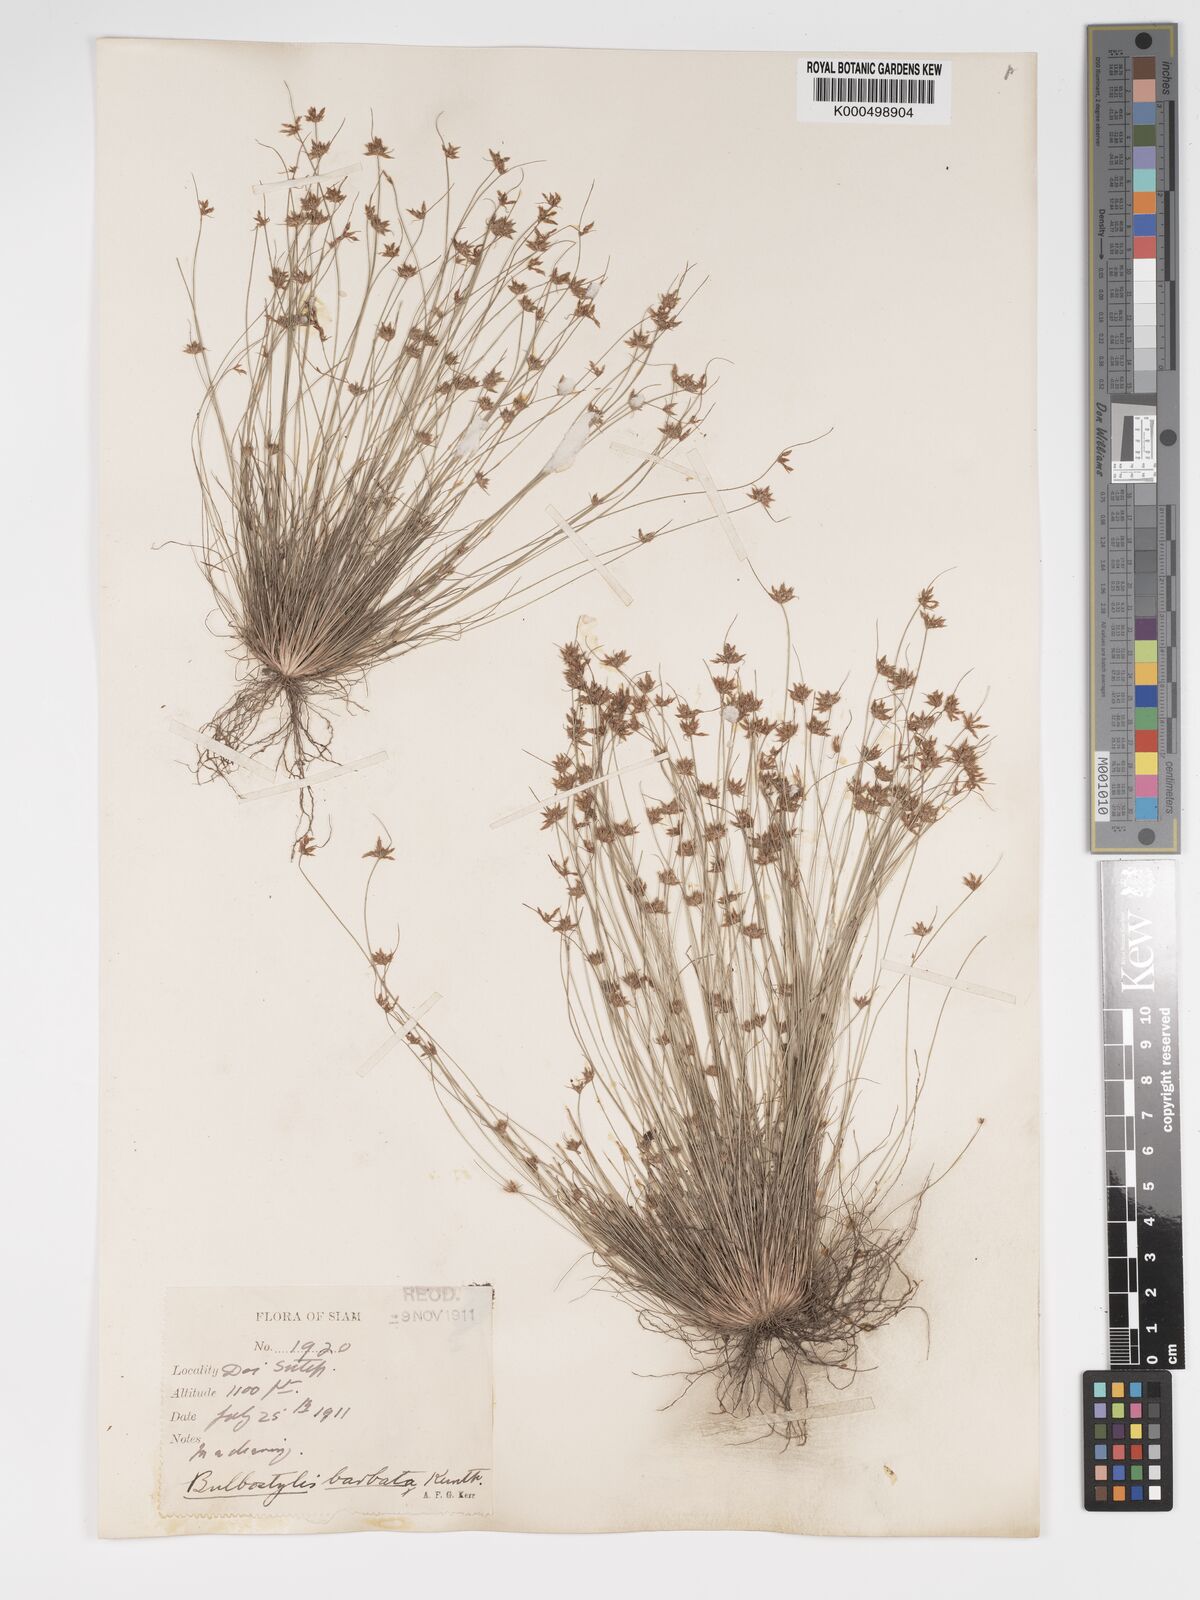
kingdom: Plantae
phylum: Tracheophyta
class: Liliopsida
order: Poales
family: Cyperaceae
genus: Bulbostylis
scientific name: Bulbostylis barbata
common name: Watergrass
